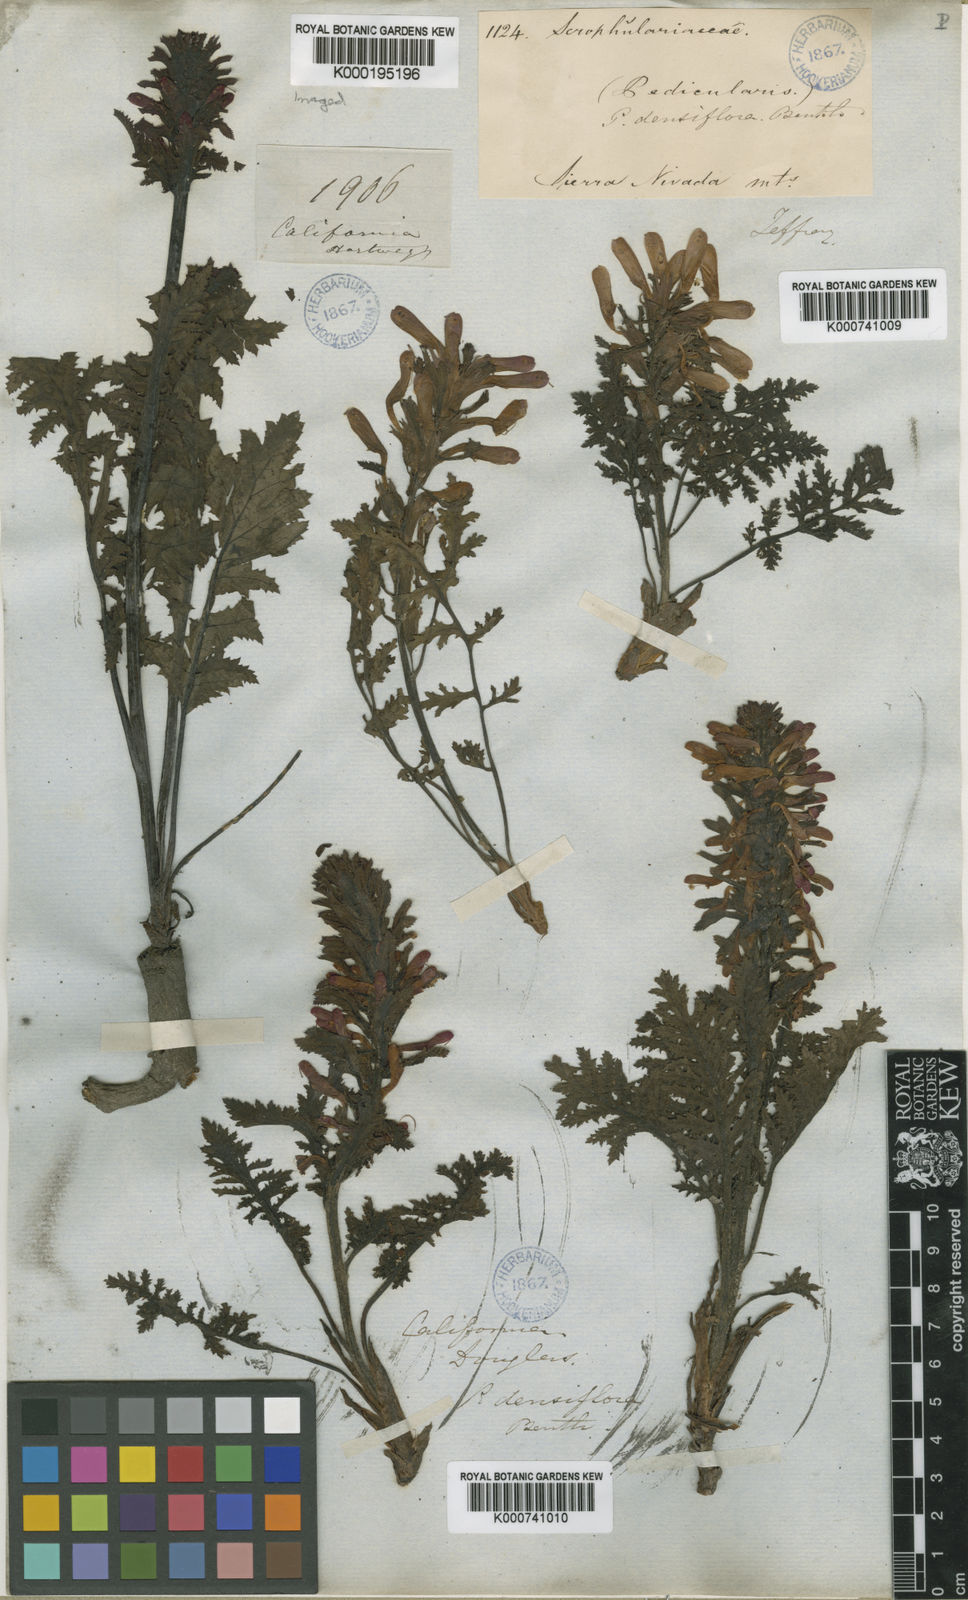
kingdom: Plantae
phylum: Tracheophyta
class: Magnoliopsida
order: Lamiales
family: Orobanchaceae
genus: Pedicularis
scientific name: Pedicularis densiflora
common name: Indian warrior
